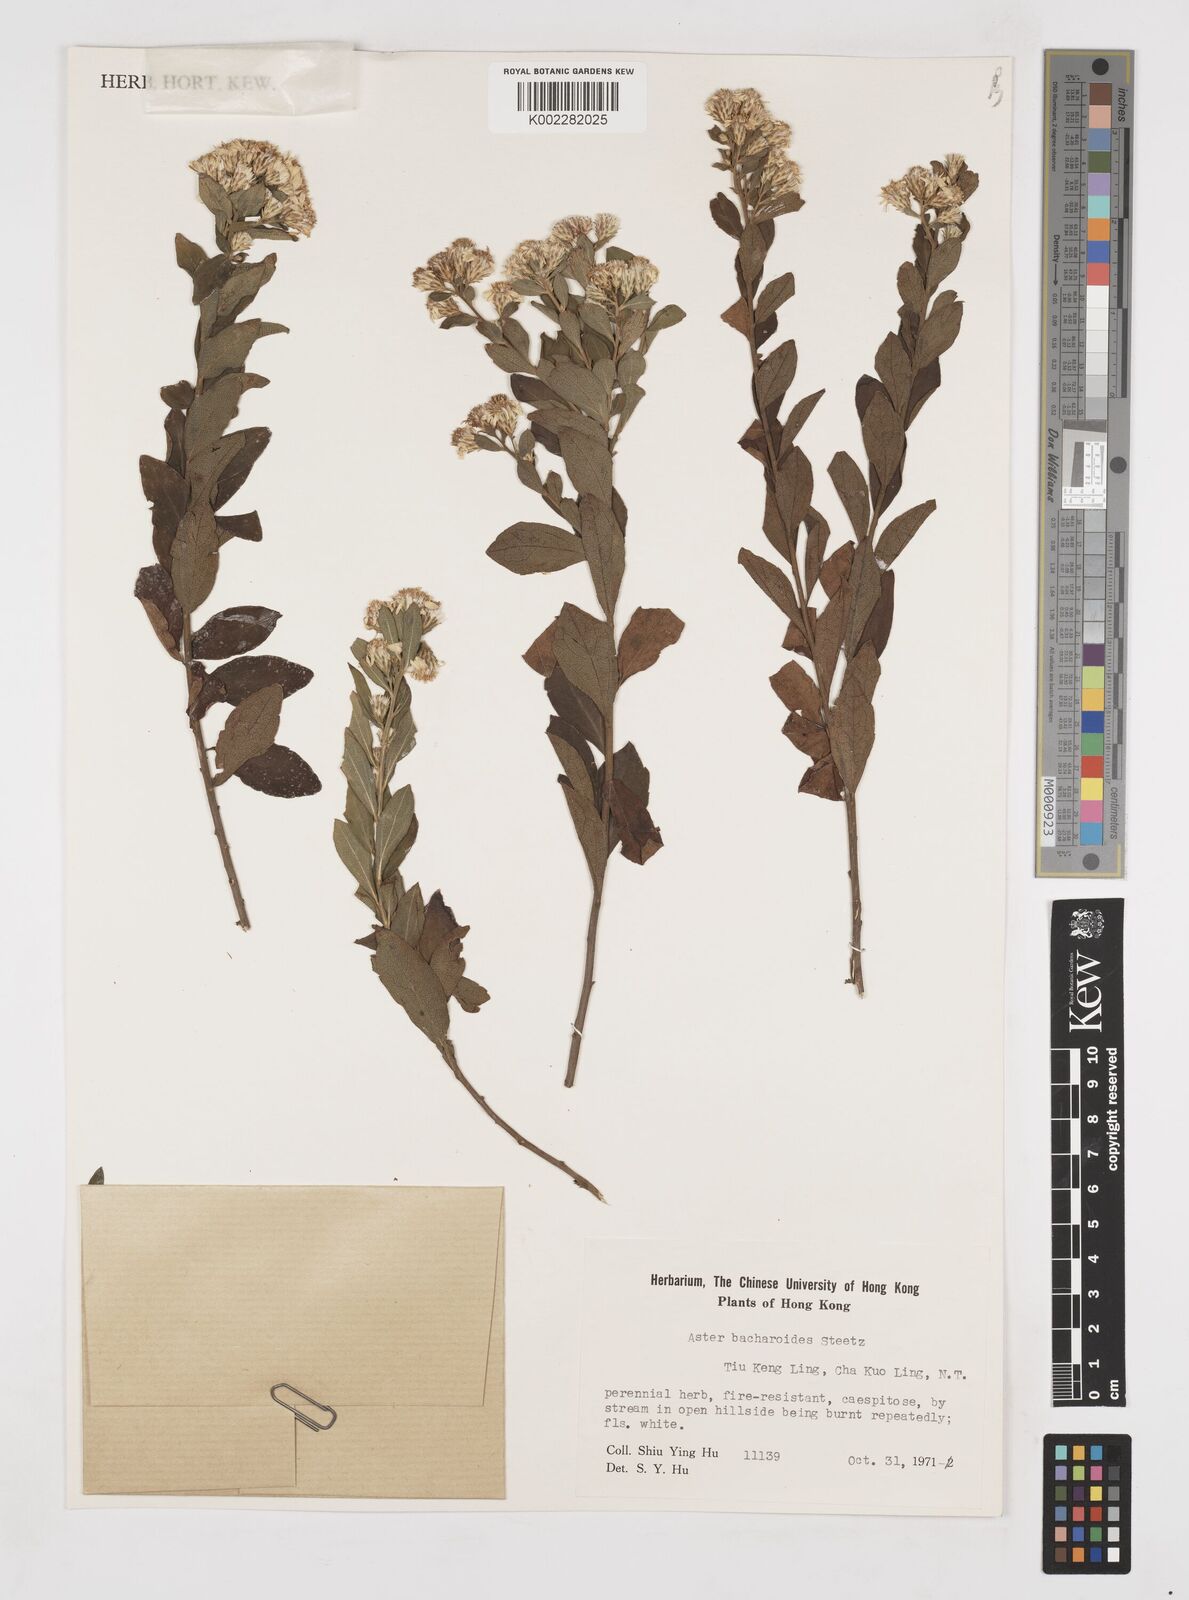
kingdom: Plantae
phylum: Tracheophyta
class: Magnoliopsida
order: Asterales
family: Asteraceae
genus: Aster
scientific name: Aster baccharoides
